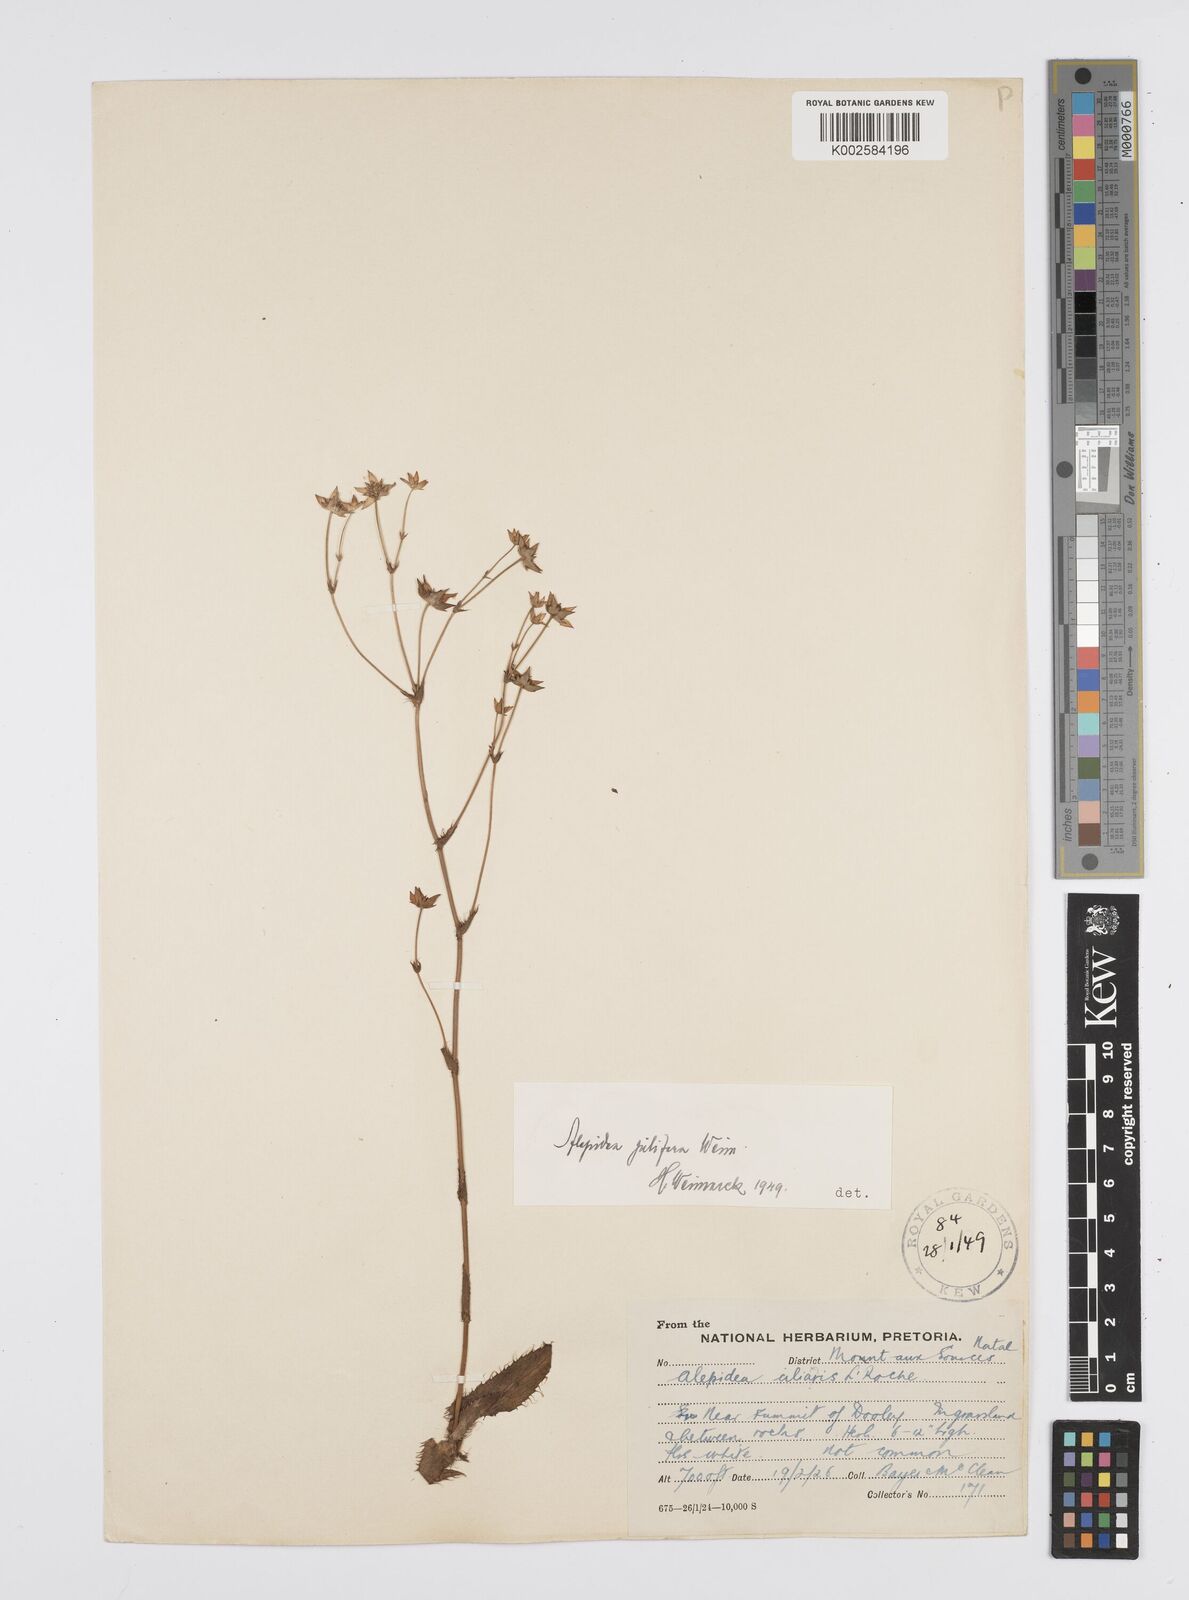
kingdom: Plantae
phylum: Tracheophyta
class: Magnoliopsida
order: Apiales
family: Apiaceae
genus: Alepidea
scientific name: Alepidea pilifera
